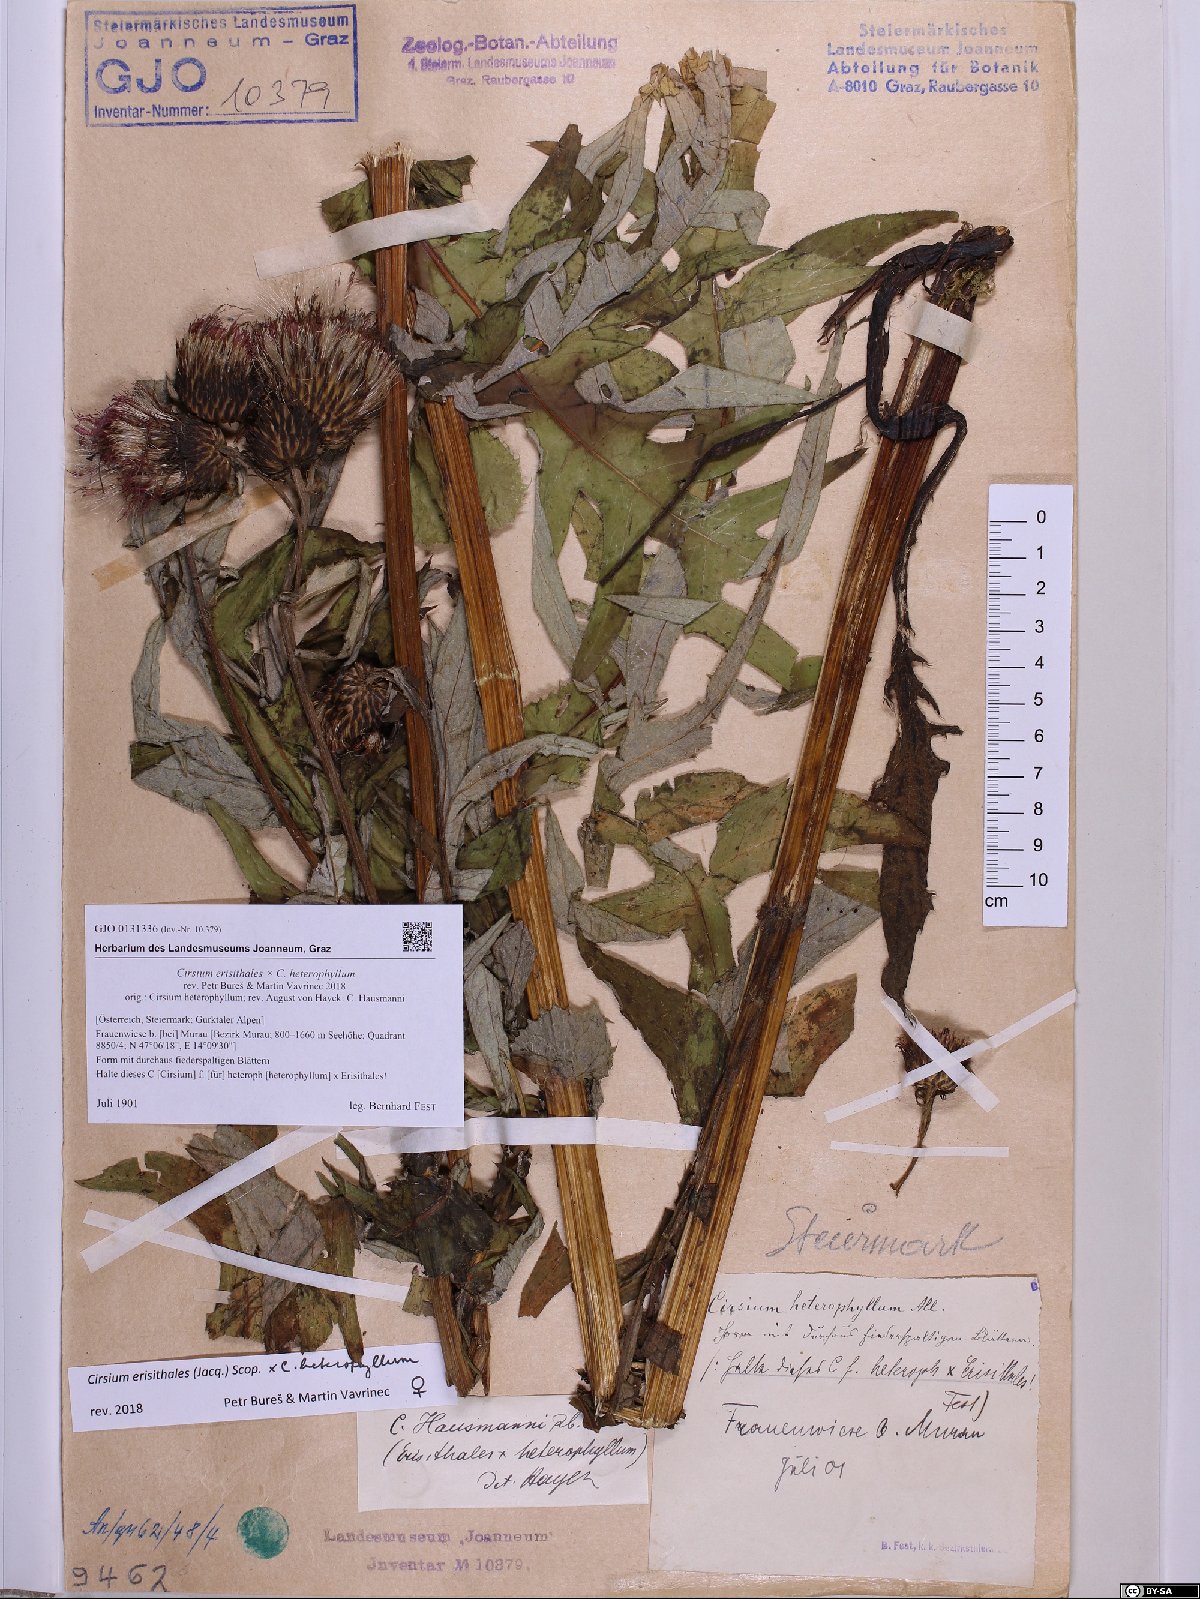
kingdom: Plantae
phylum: Tracheophyta
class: Magnoliopsida
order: Asterales
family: Asteraceae
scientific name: Asteraceae
